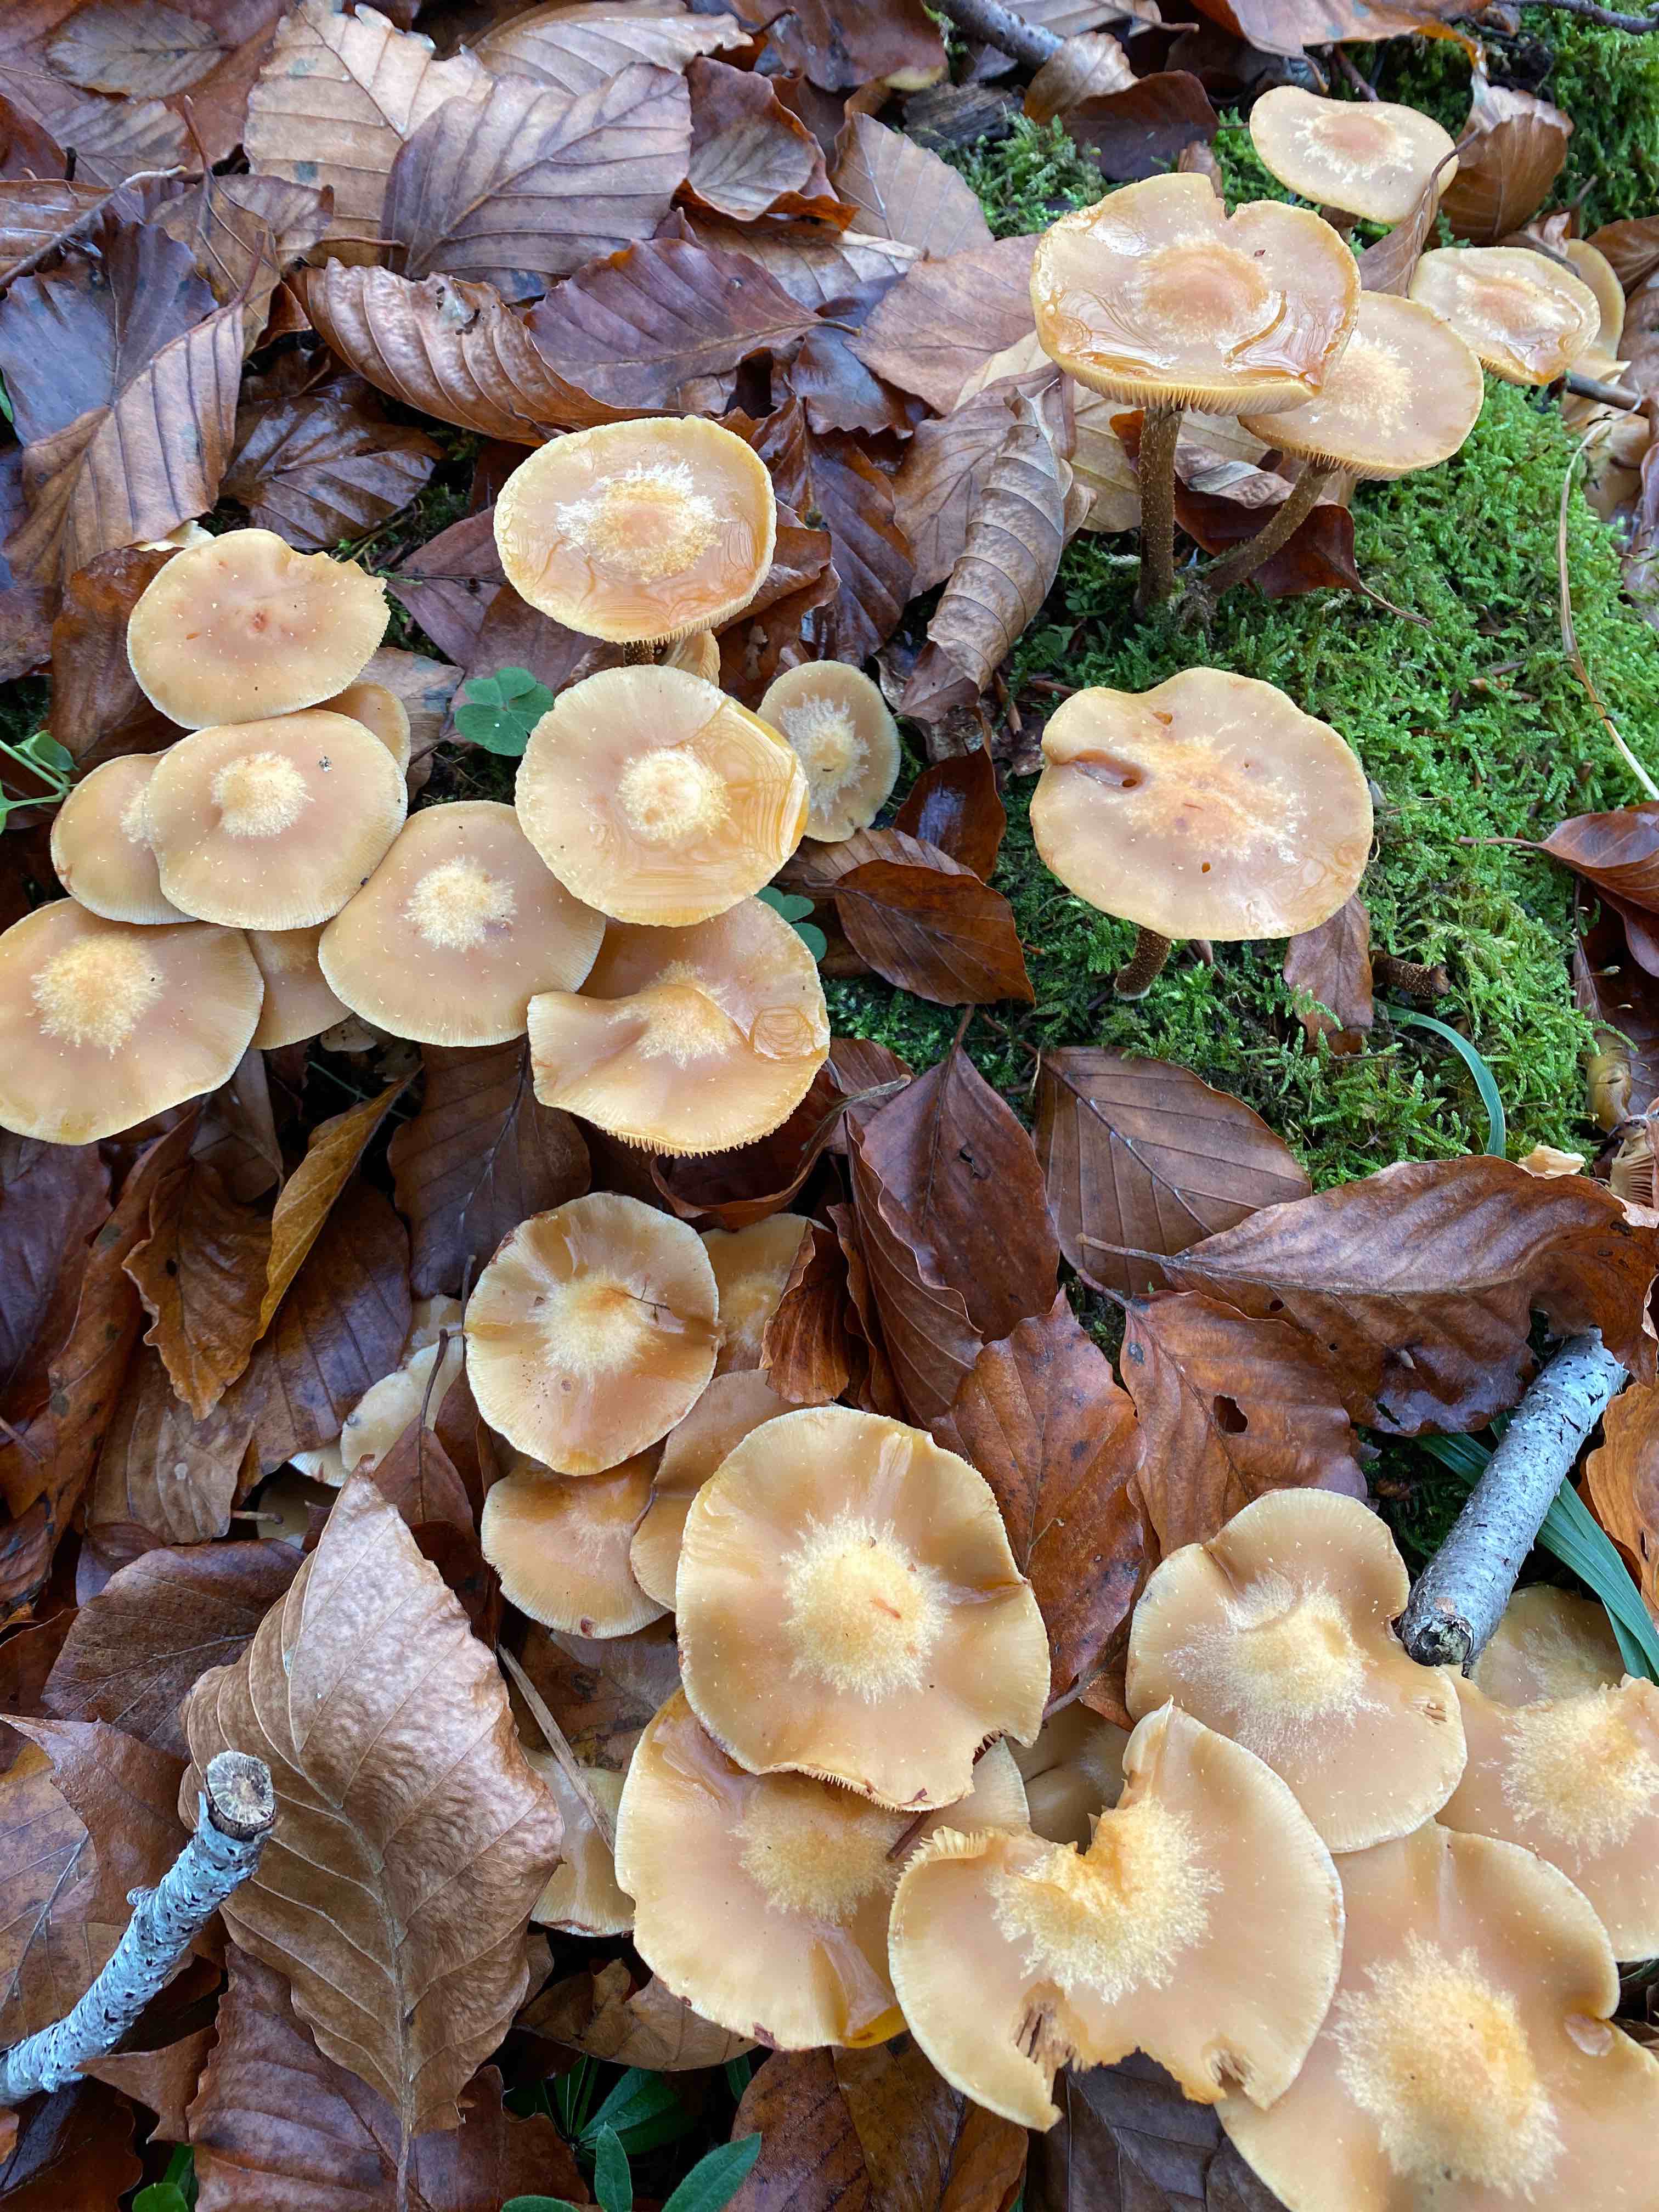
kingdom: Fungi
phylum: Basidiomycota
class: Agaricomycetes
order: Agaricales
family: Strophariaceae
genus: Kuehneromyces
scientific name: Kuehneromyces mutabilis
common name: foranderlig skælhat
